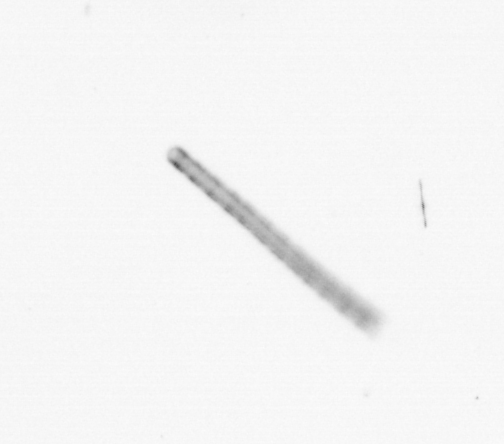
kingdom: Chromista
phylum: Ochrophyta
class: Bacillariophyceae
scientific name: Bacillariophyceae
